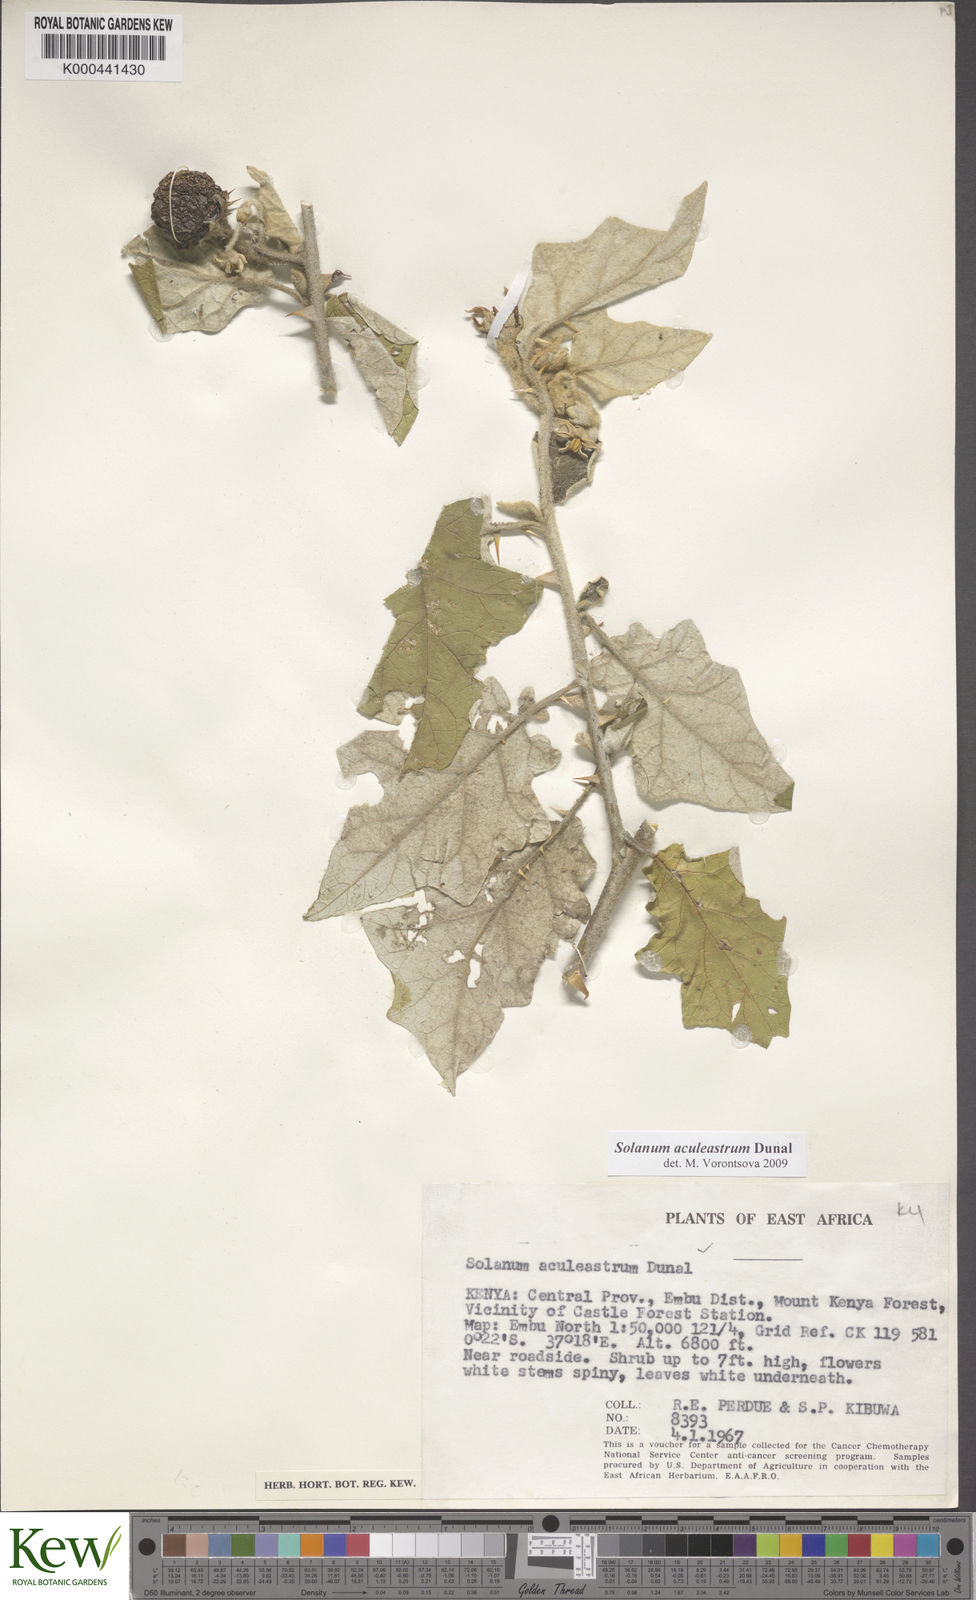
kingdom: Plantae
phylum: Tracheophyta
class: Magnoliopsida
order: Solanales
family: Solanaceae
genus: Solanum
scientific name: Solanum aculeastrum
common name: Goat bitter-apple
